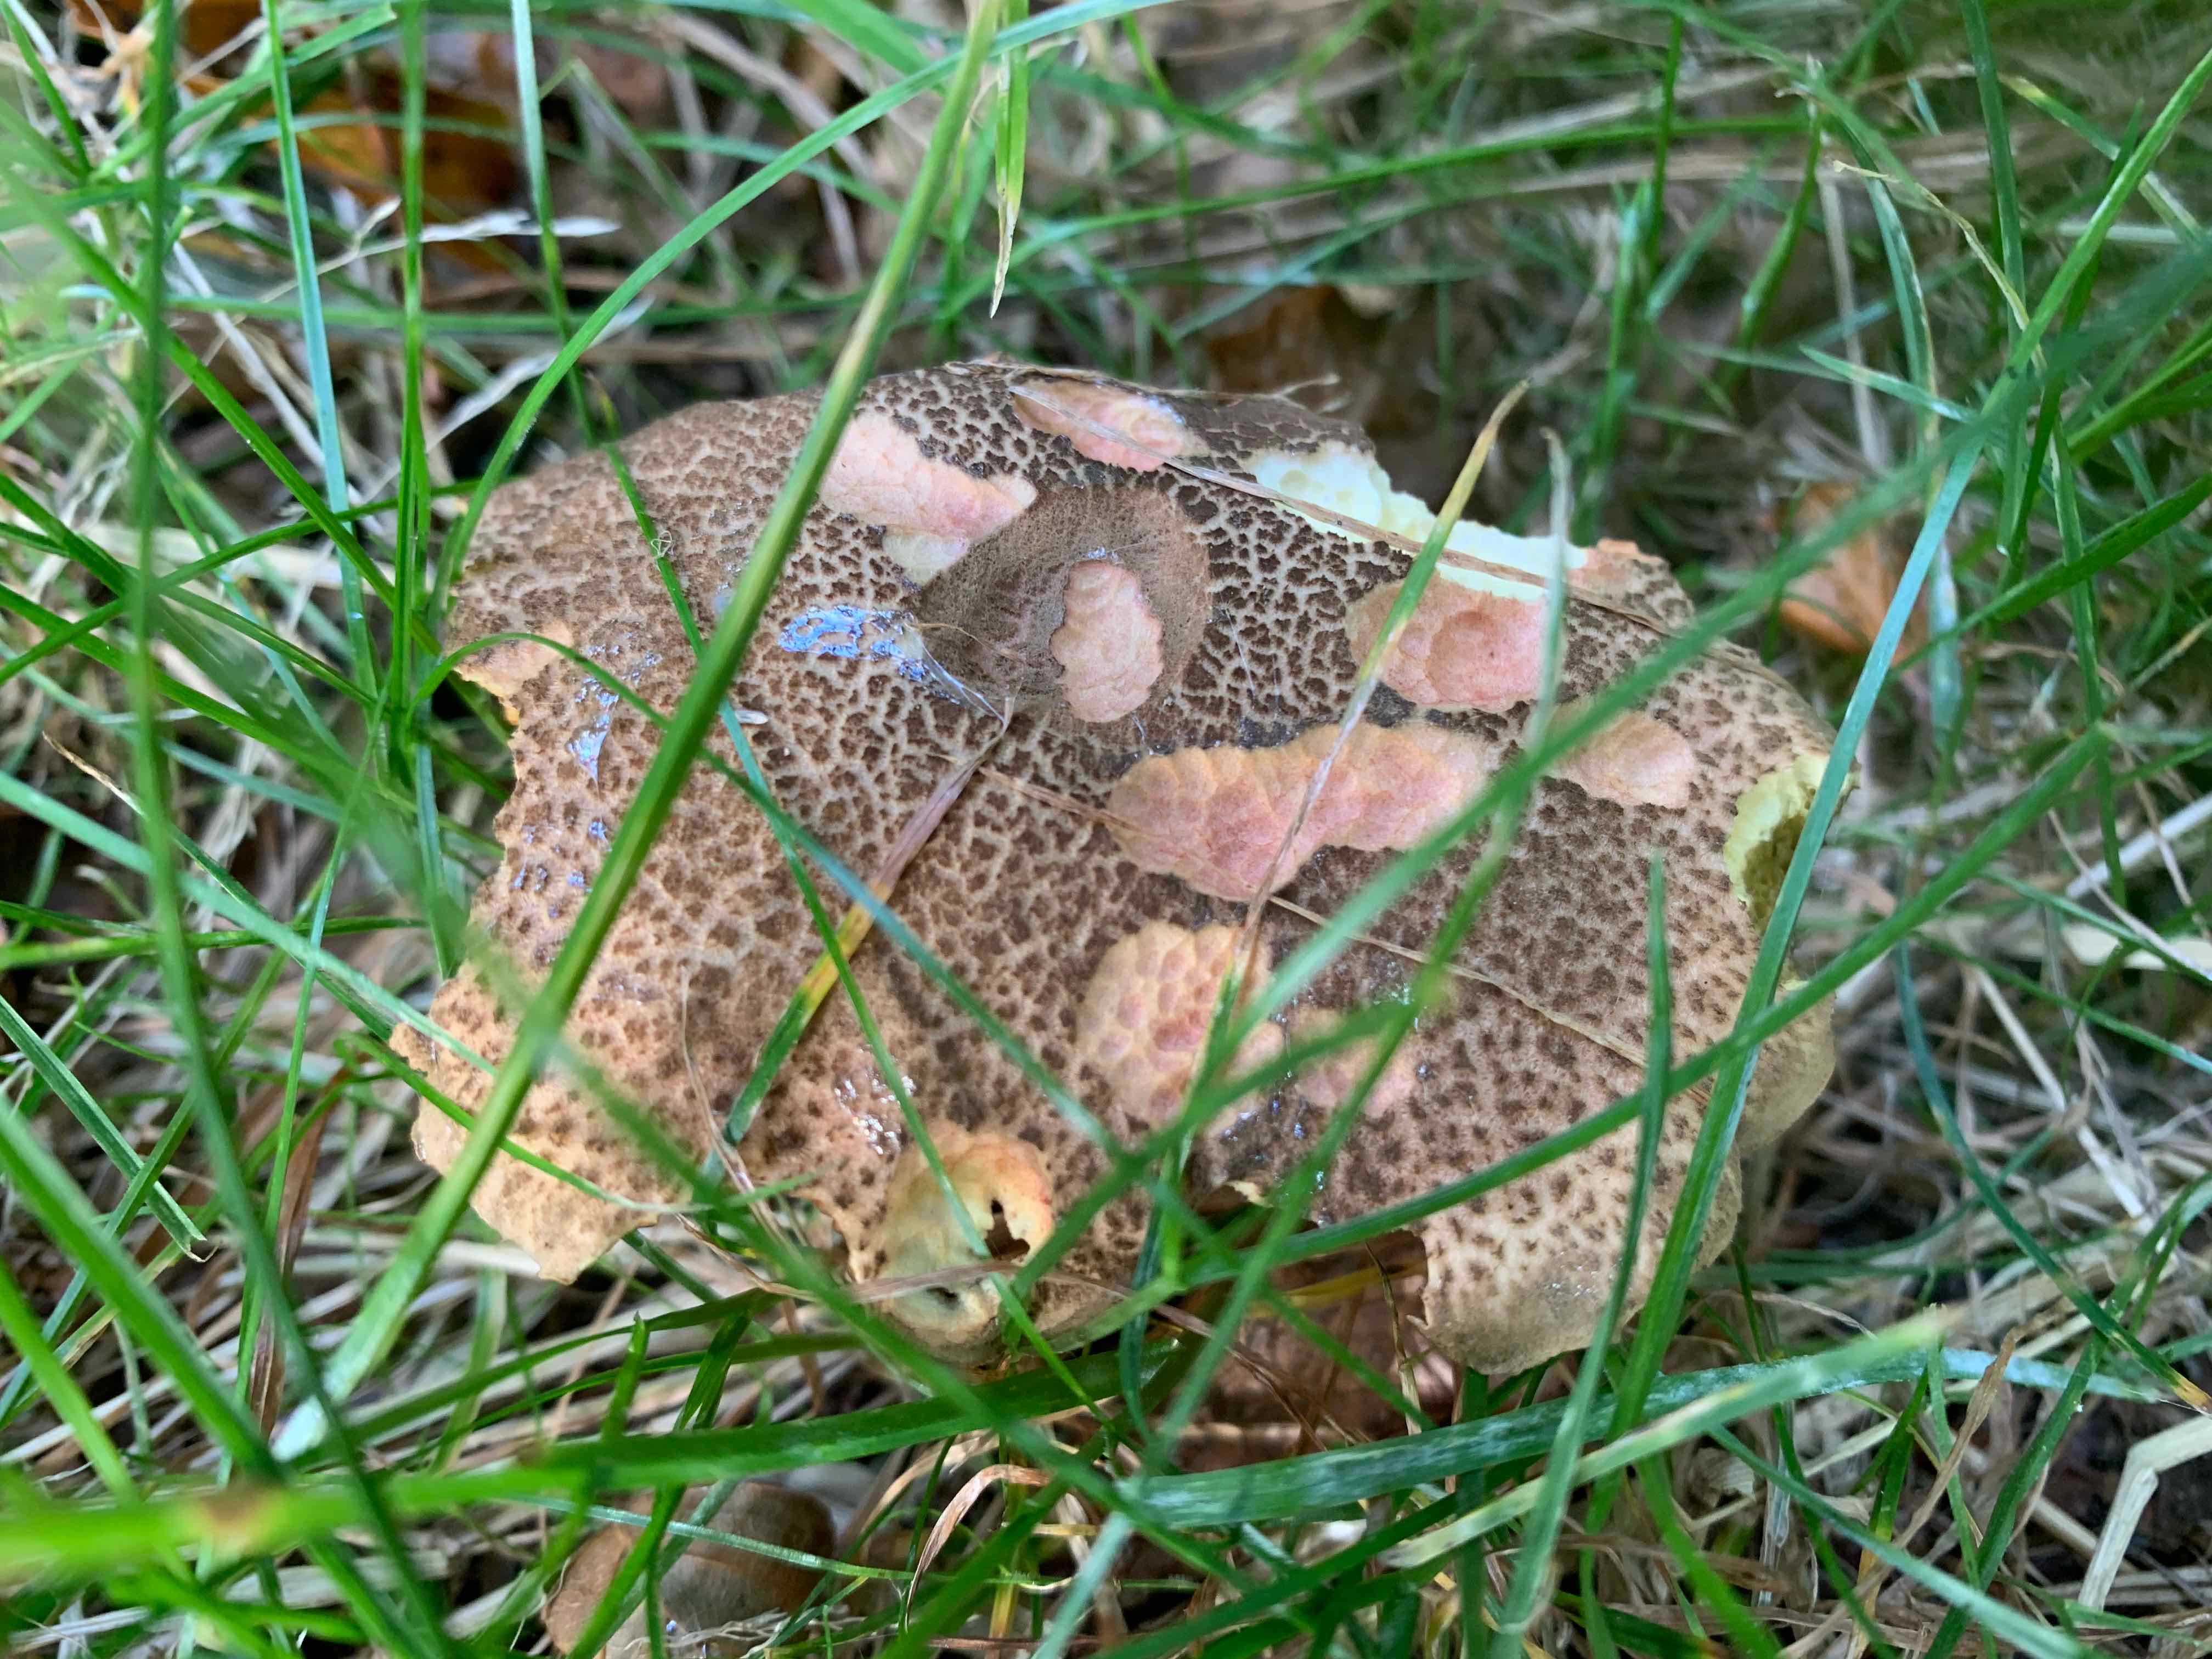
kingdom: Fungi
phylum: Basidiomycota
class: Agaricomycetes
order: Boletales
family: Boletaceae
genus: Xerocomellus
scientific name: Xerocomellus
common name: dværgrørhat
